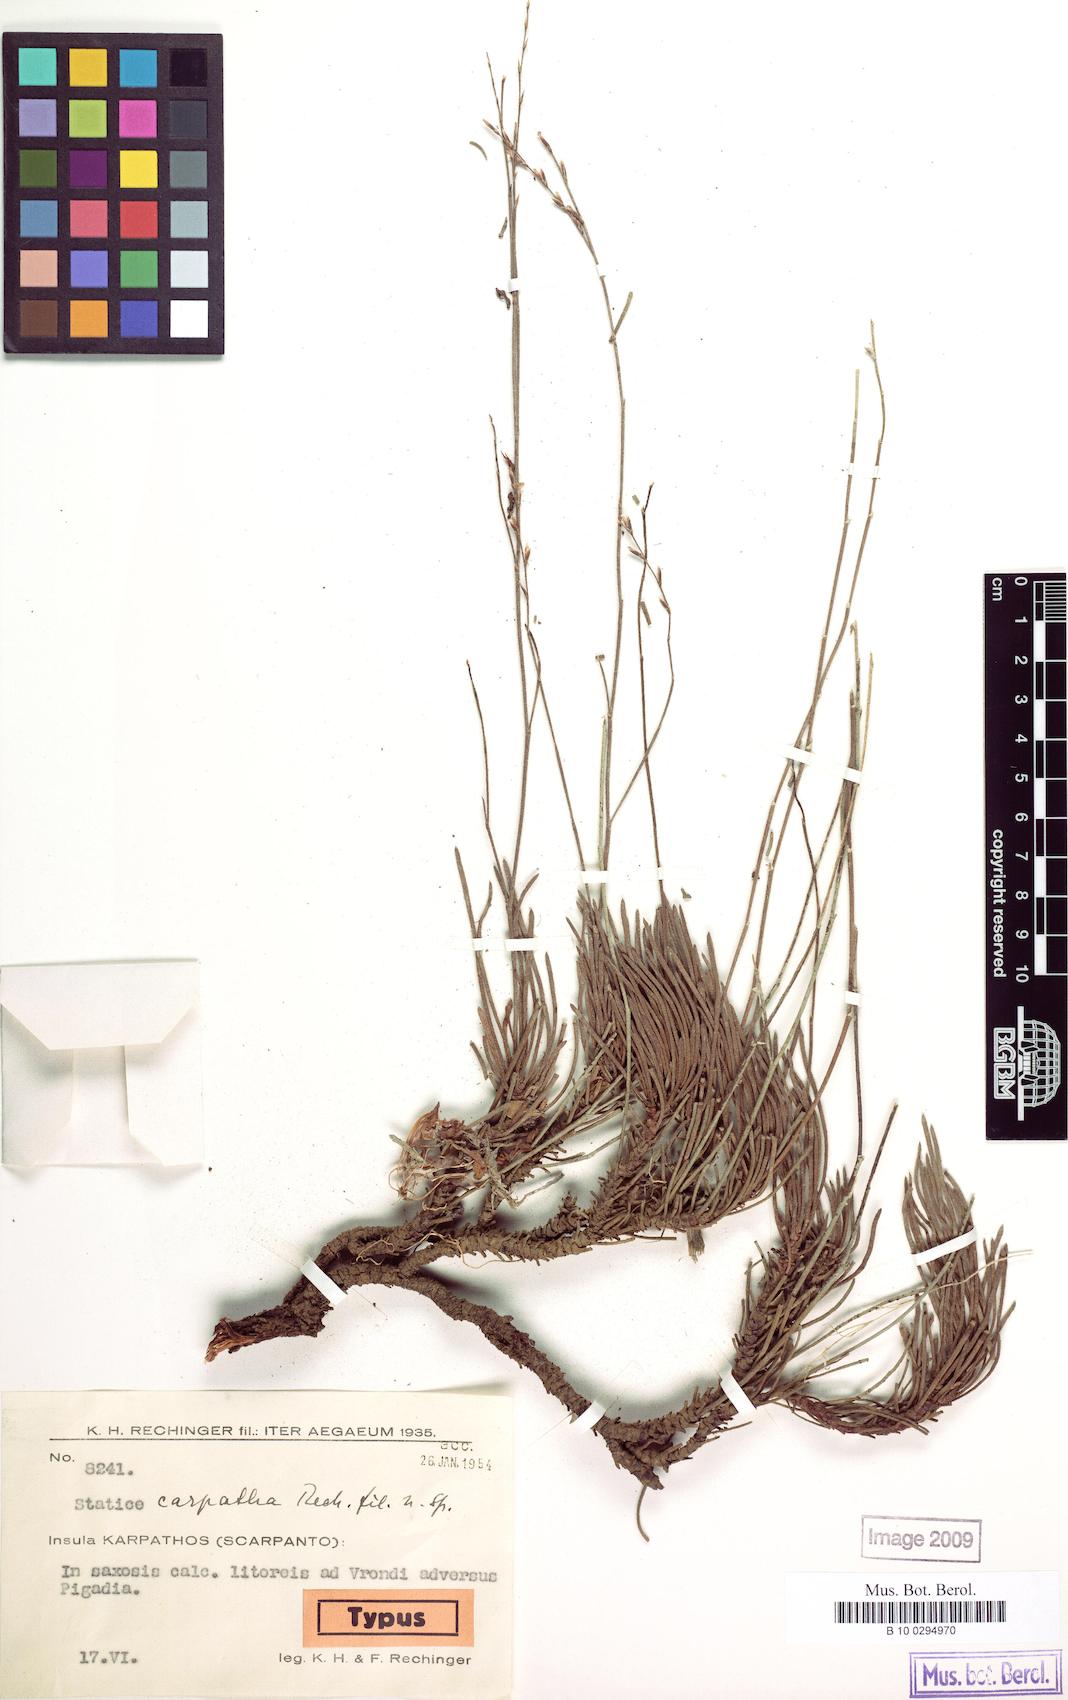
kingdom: Plantae
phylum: Tracheophyta
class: Magnoliopsida
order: Caryophyllales
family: Plumbaginaceae
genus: Limonium
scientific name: Limonium carpathum
